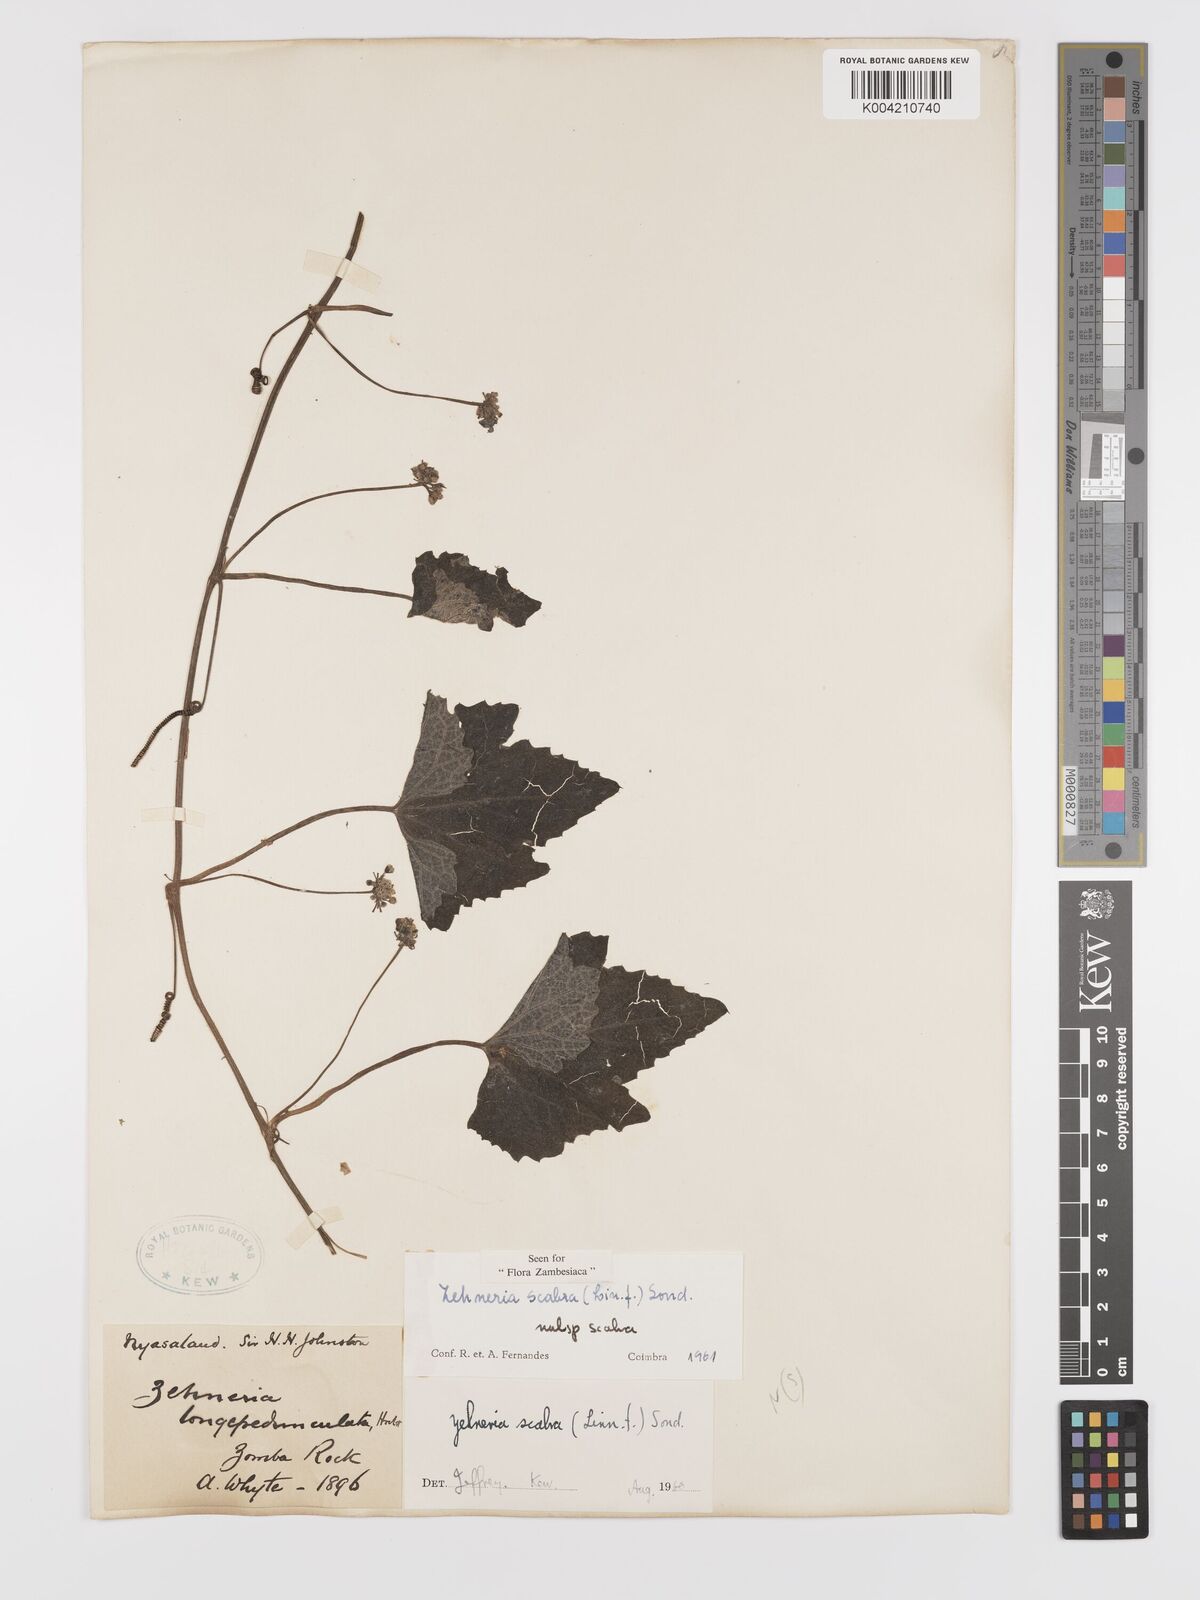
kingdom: Plantae
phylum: Tracheophyta
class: Magnoliopsida
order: Cucurbitales
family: Cucurbitaceae
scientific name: Cucurbitaceae
